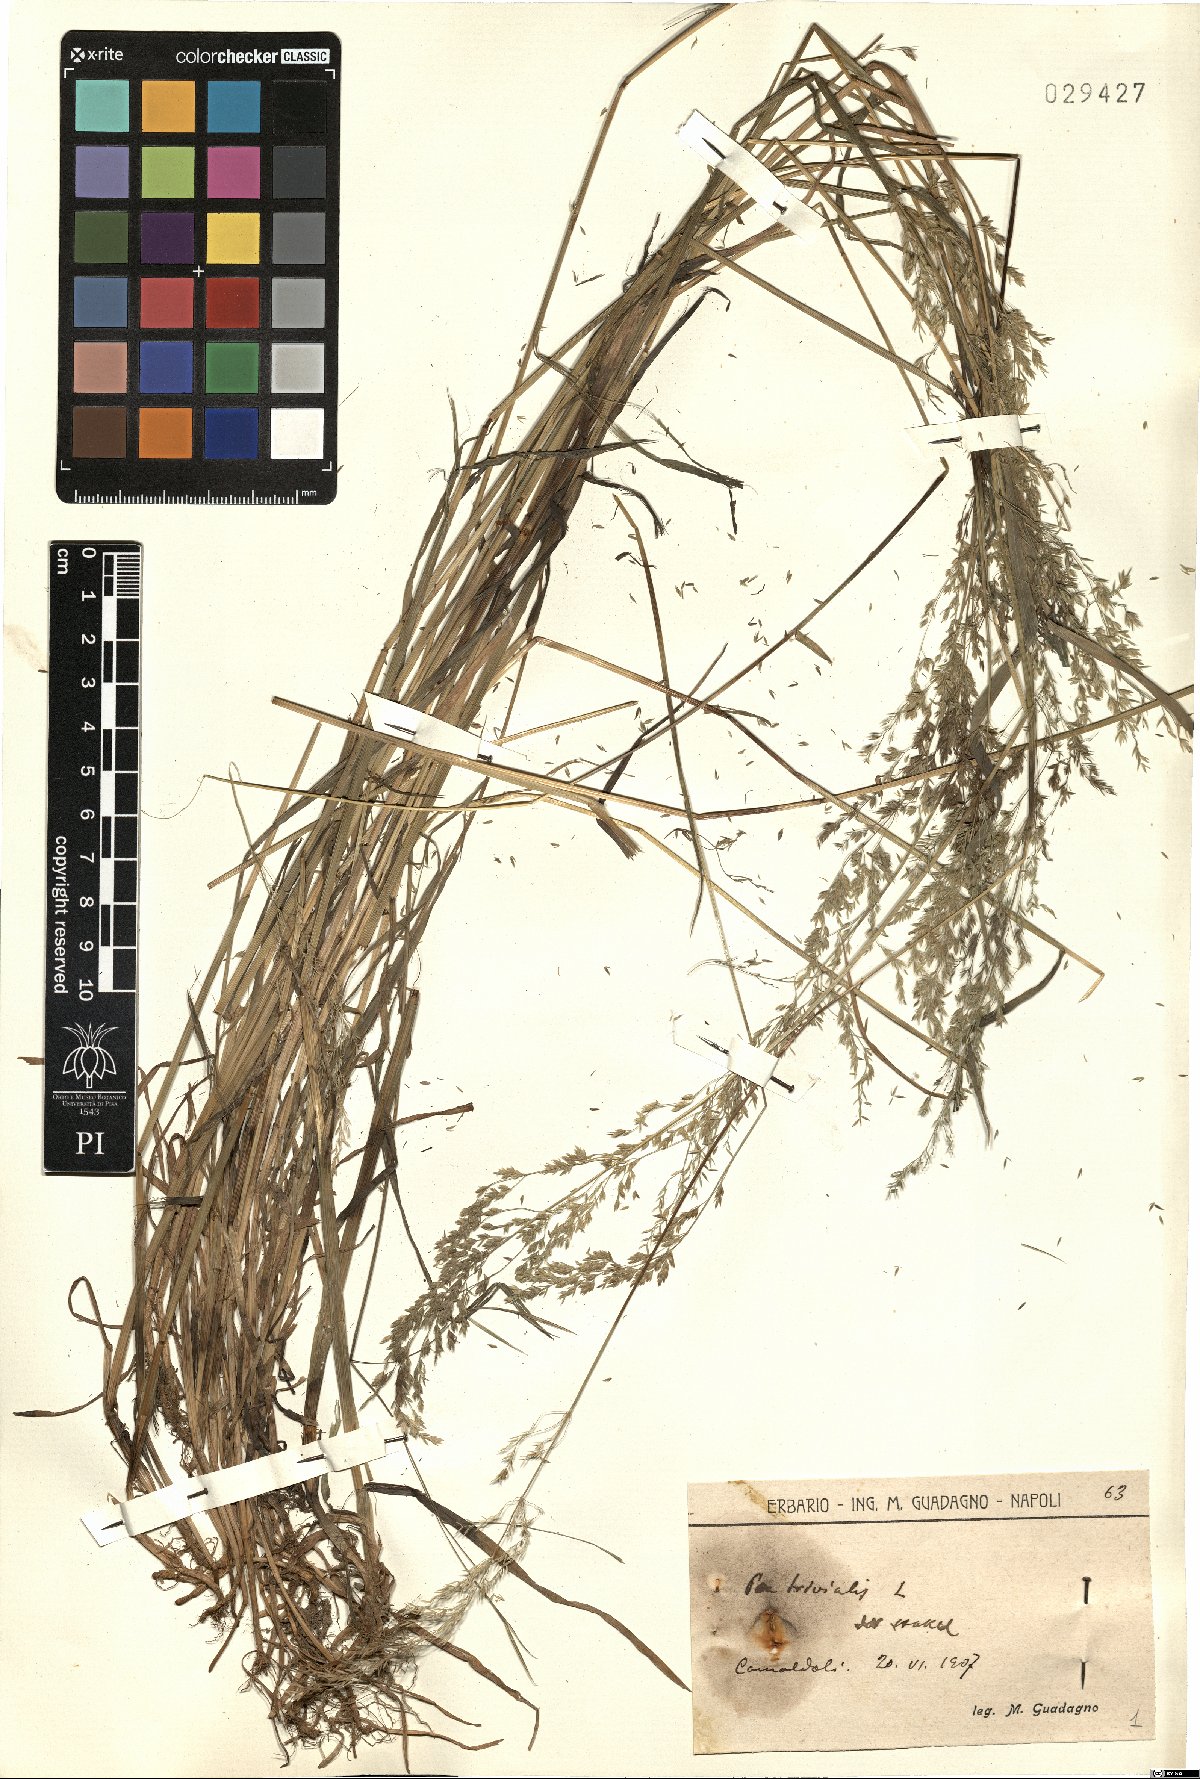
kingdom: Plantae
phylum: Tracheophyta
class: Liliopsida
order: Poales
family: Poaceae
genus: Poa
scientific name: Poa trivialis
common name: Rough bluegrass
